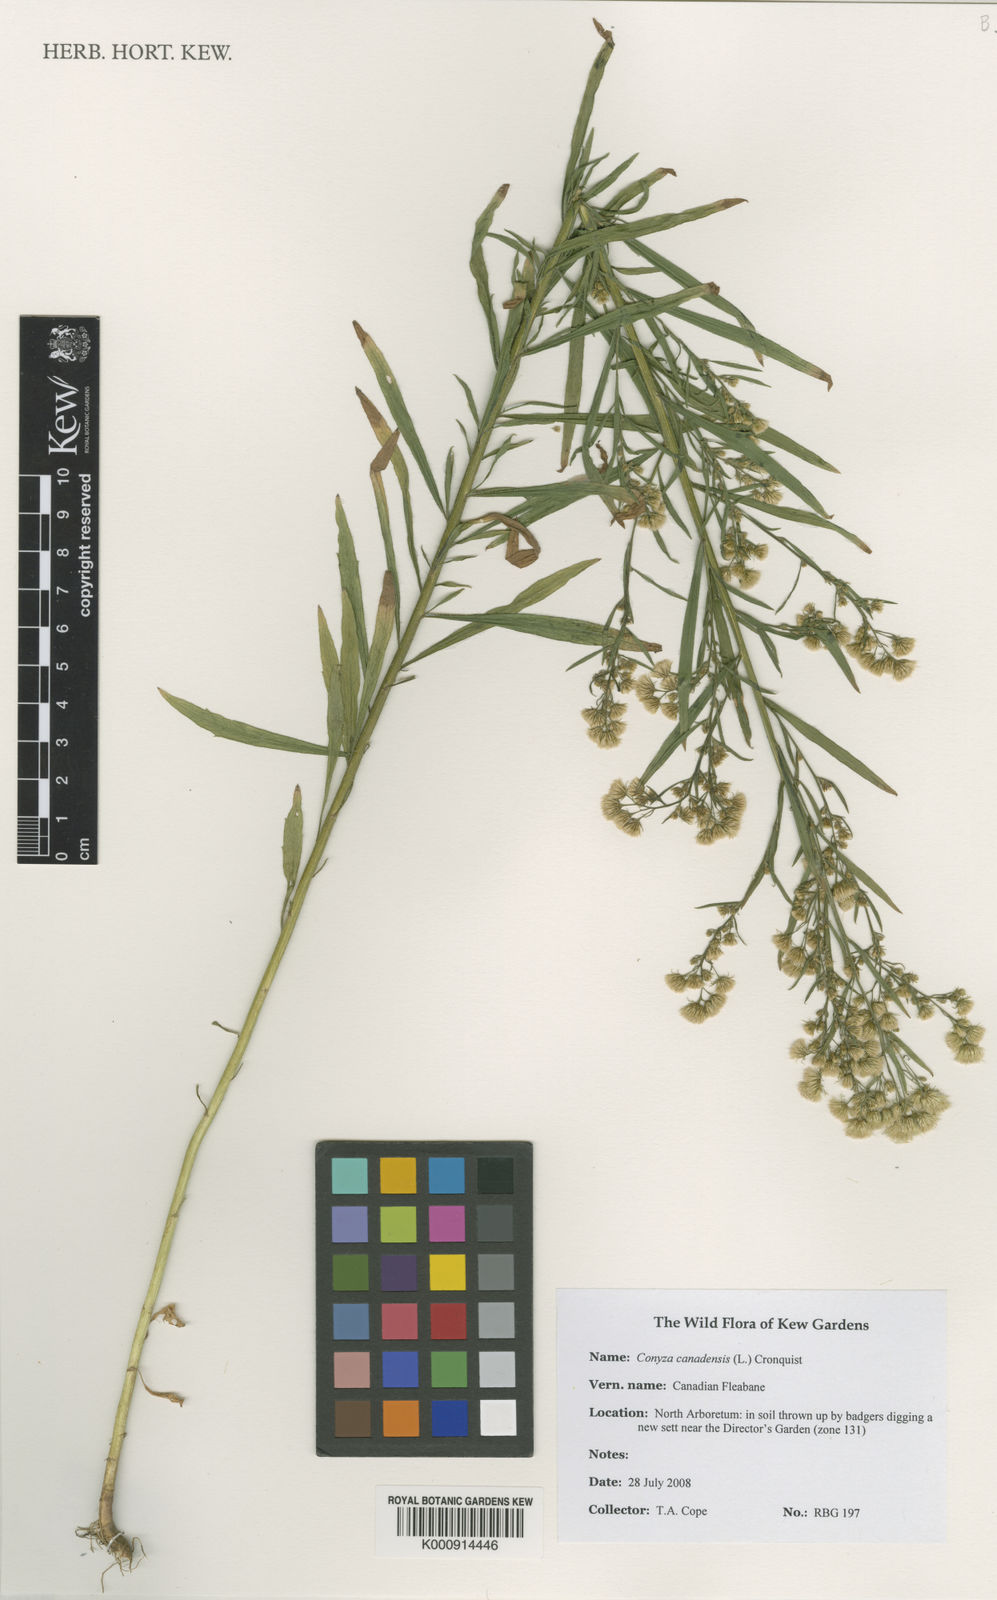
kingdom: Plantae
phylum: Tracheophyta
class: Magnoliopsida
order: Asterales
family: Asteraceae
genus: Erigeron
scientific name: Erigeron canadensis
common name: Canadian fleabane
